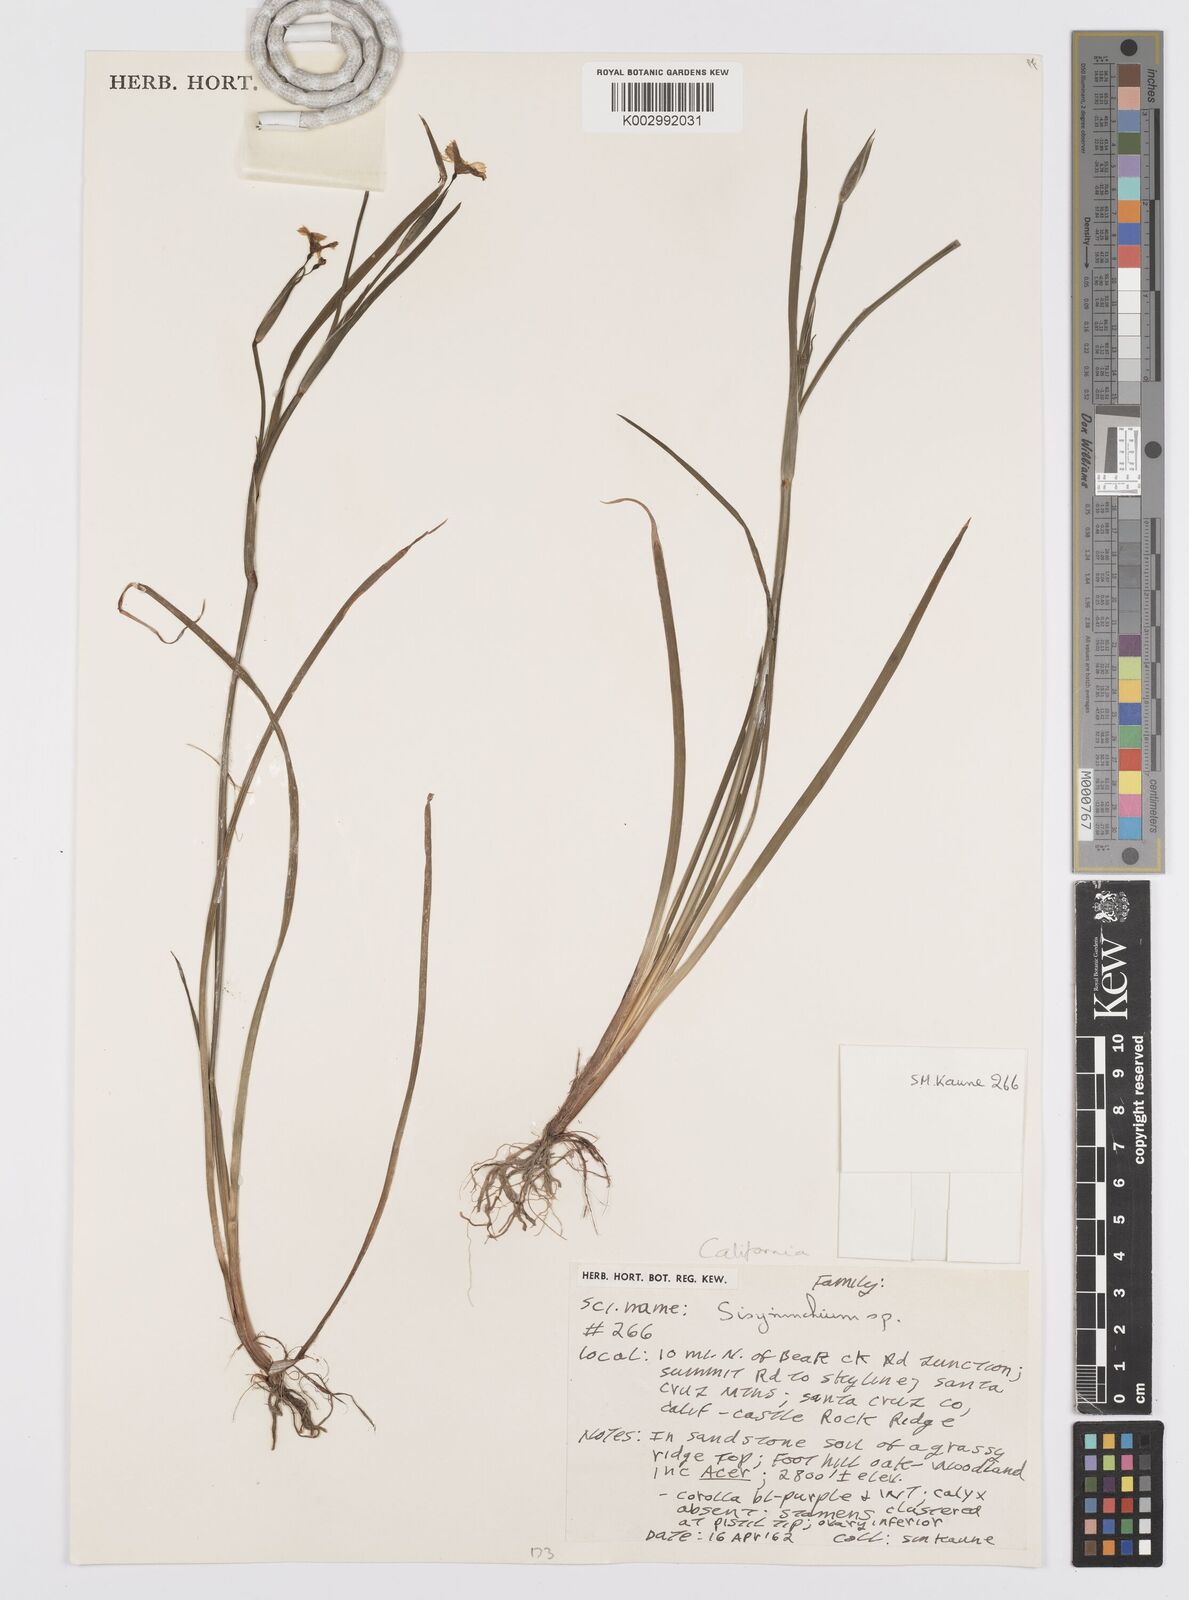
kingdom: Plantae
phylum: Tracheophyta
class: Liliopsida
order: Asparagales
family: Iridaceae
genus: Sisyrinchium
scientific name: Sisyrinchium
